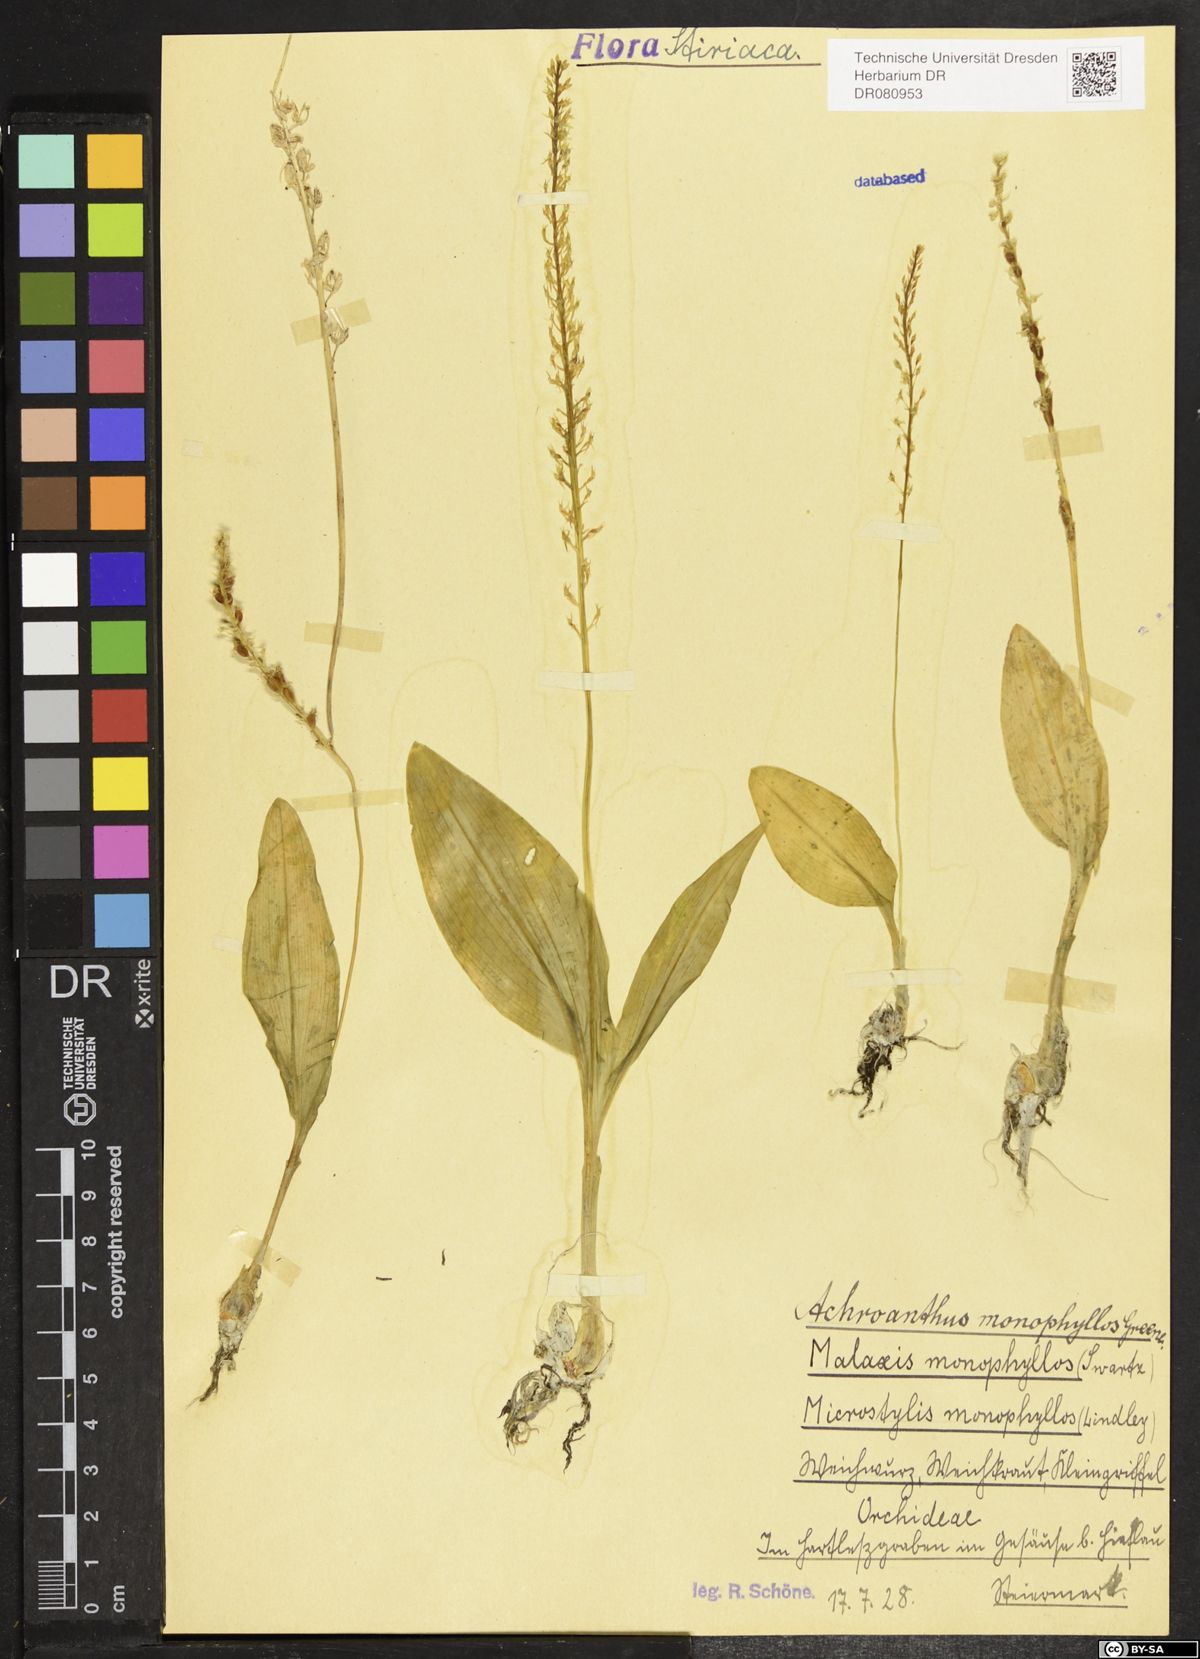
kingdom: Plantae
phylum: Tracheophyta
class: Liliopsida
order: Asparagales
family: Orchidaceae
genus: Malaxis
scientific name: Malaxis monophyllos
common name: White adder's-mouth
